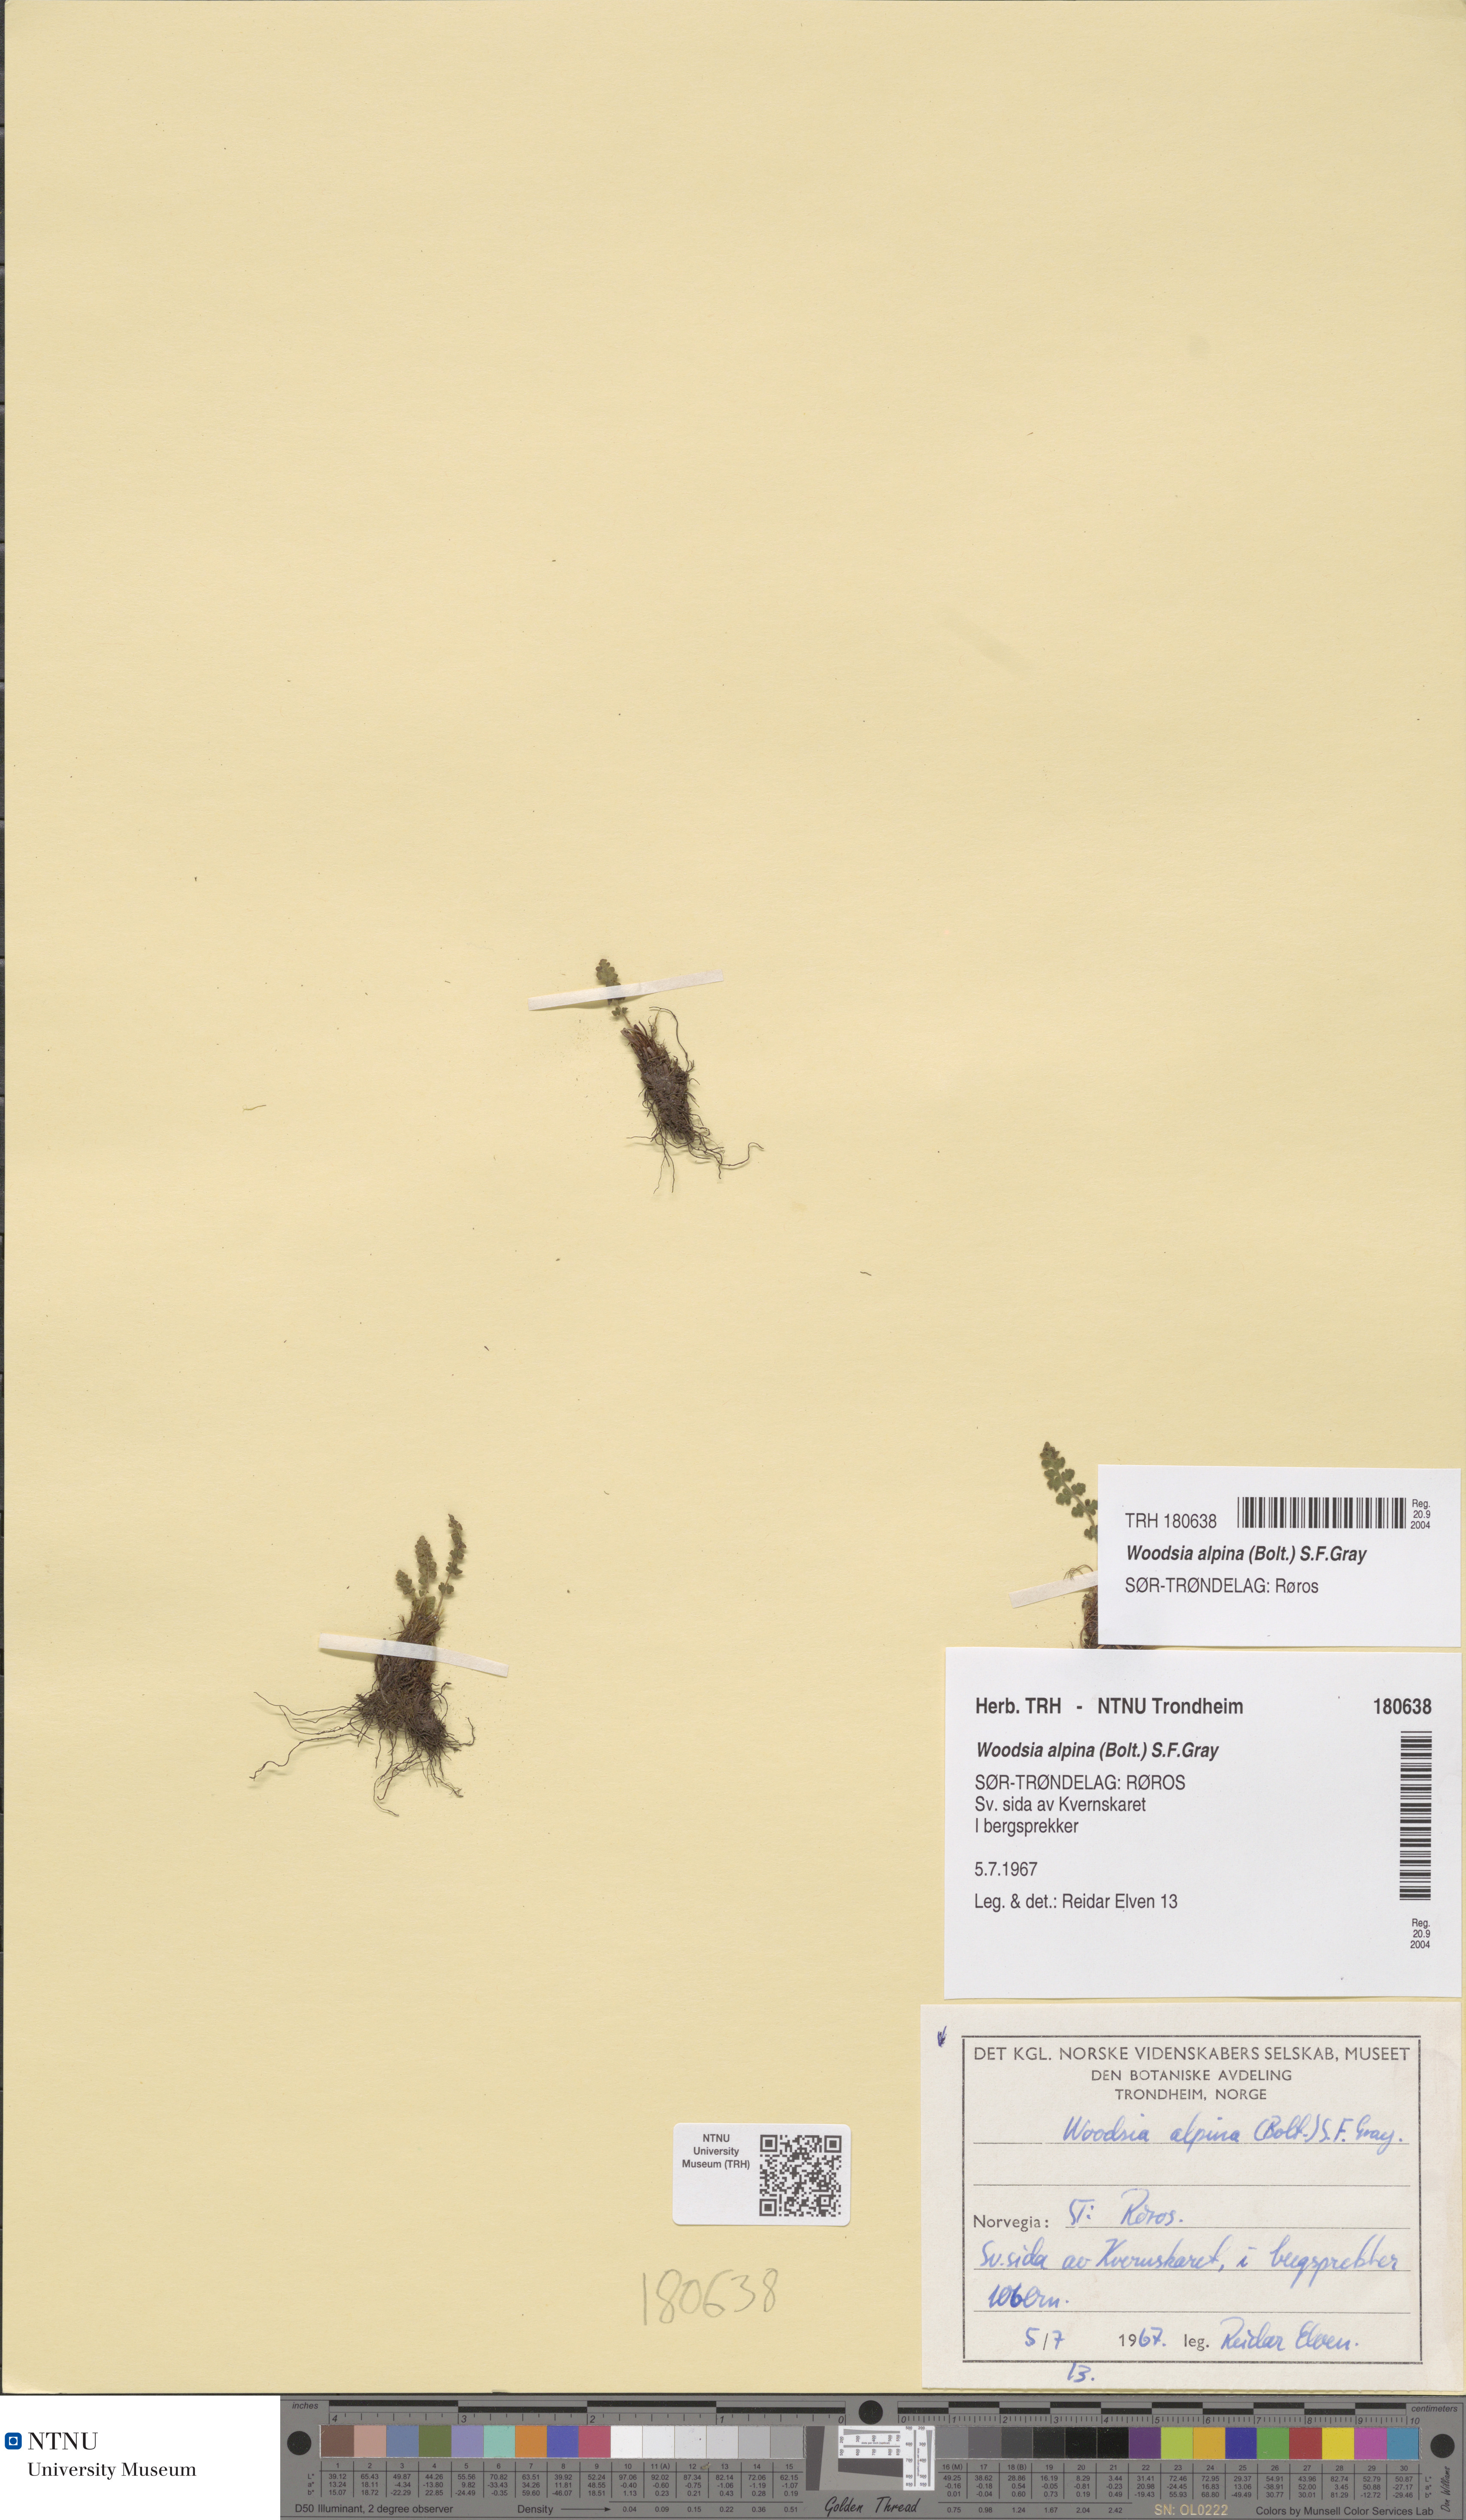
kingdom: Plantae
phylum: Tracheophyta
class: Polypodiopsida
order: Polypodiales
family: Woodsiaceae
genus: Woodsia
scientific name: Woodsia alpina
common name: Alpine woodsia
